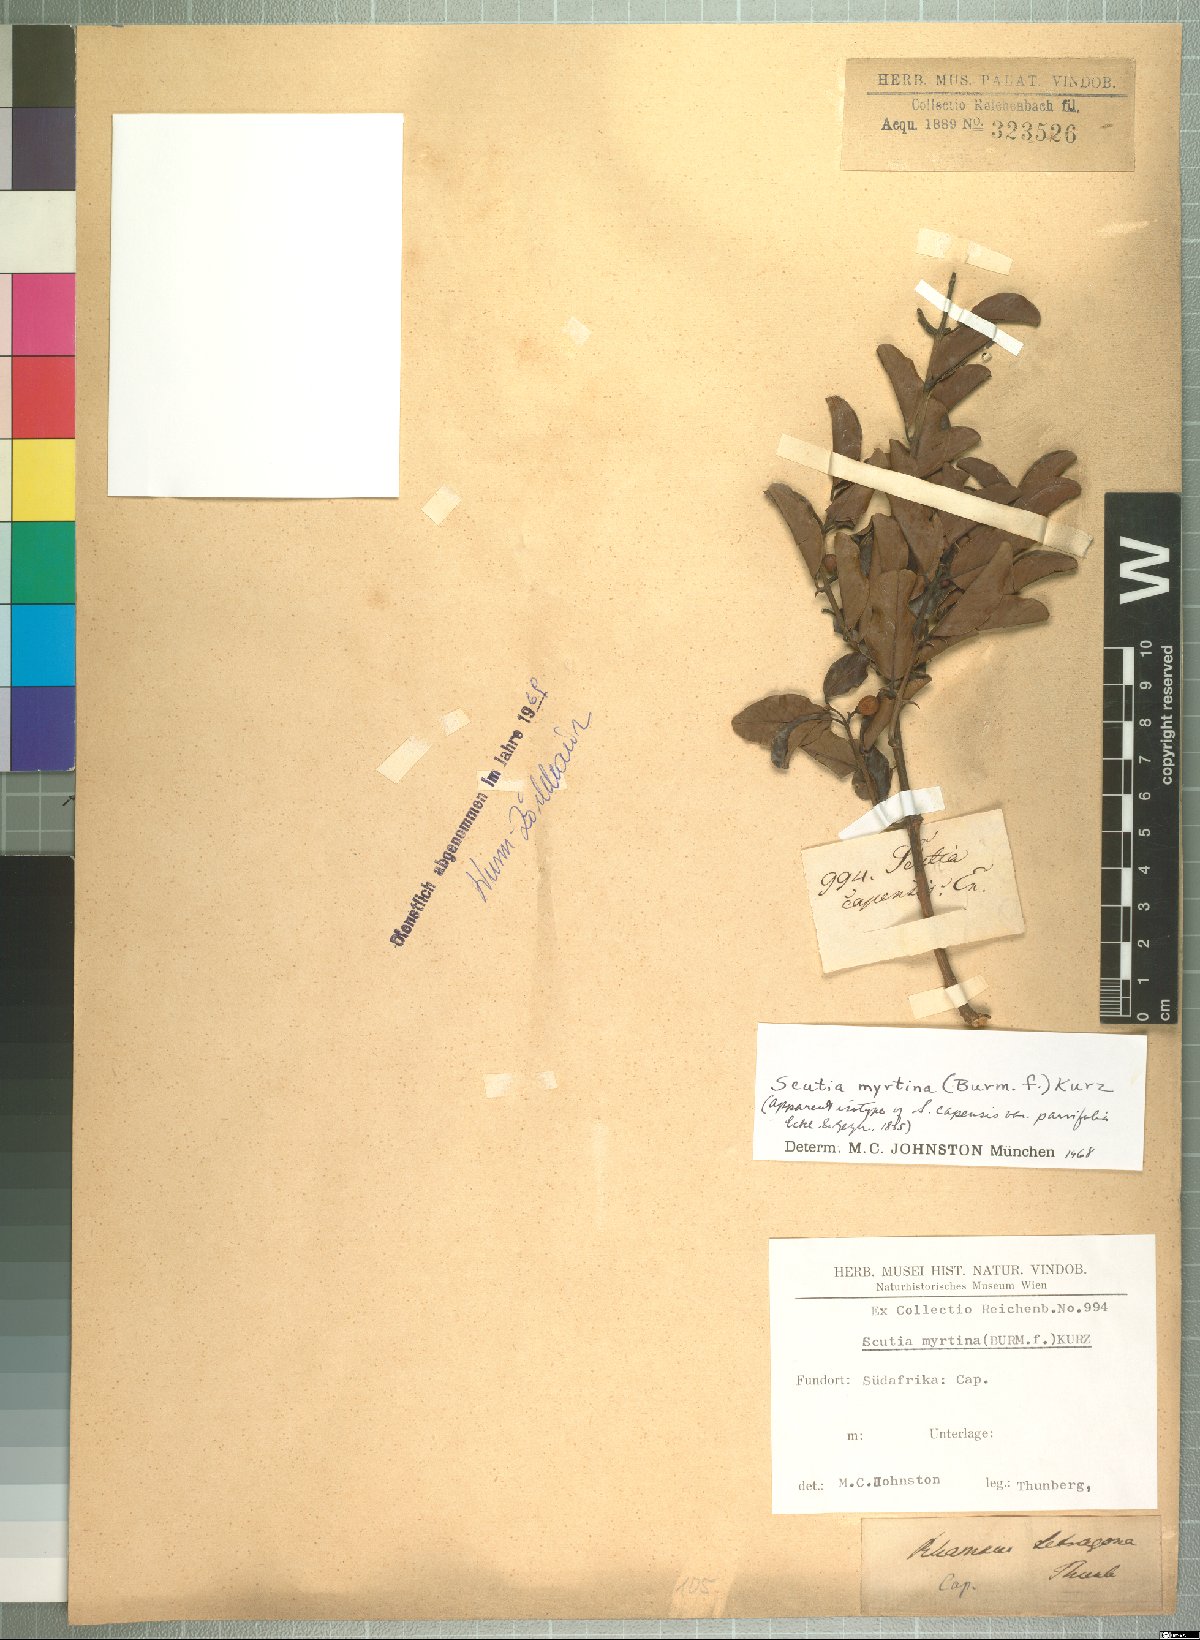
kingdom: Plantae
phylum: Tracheophyta
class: Magnoliopsida
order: Rosales
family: Rhamnaceae
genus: Scutia
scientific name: Scutia myrtina
